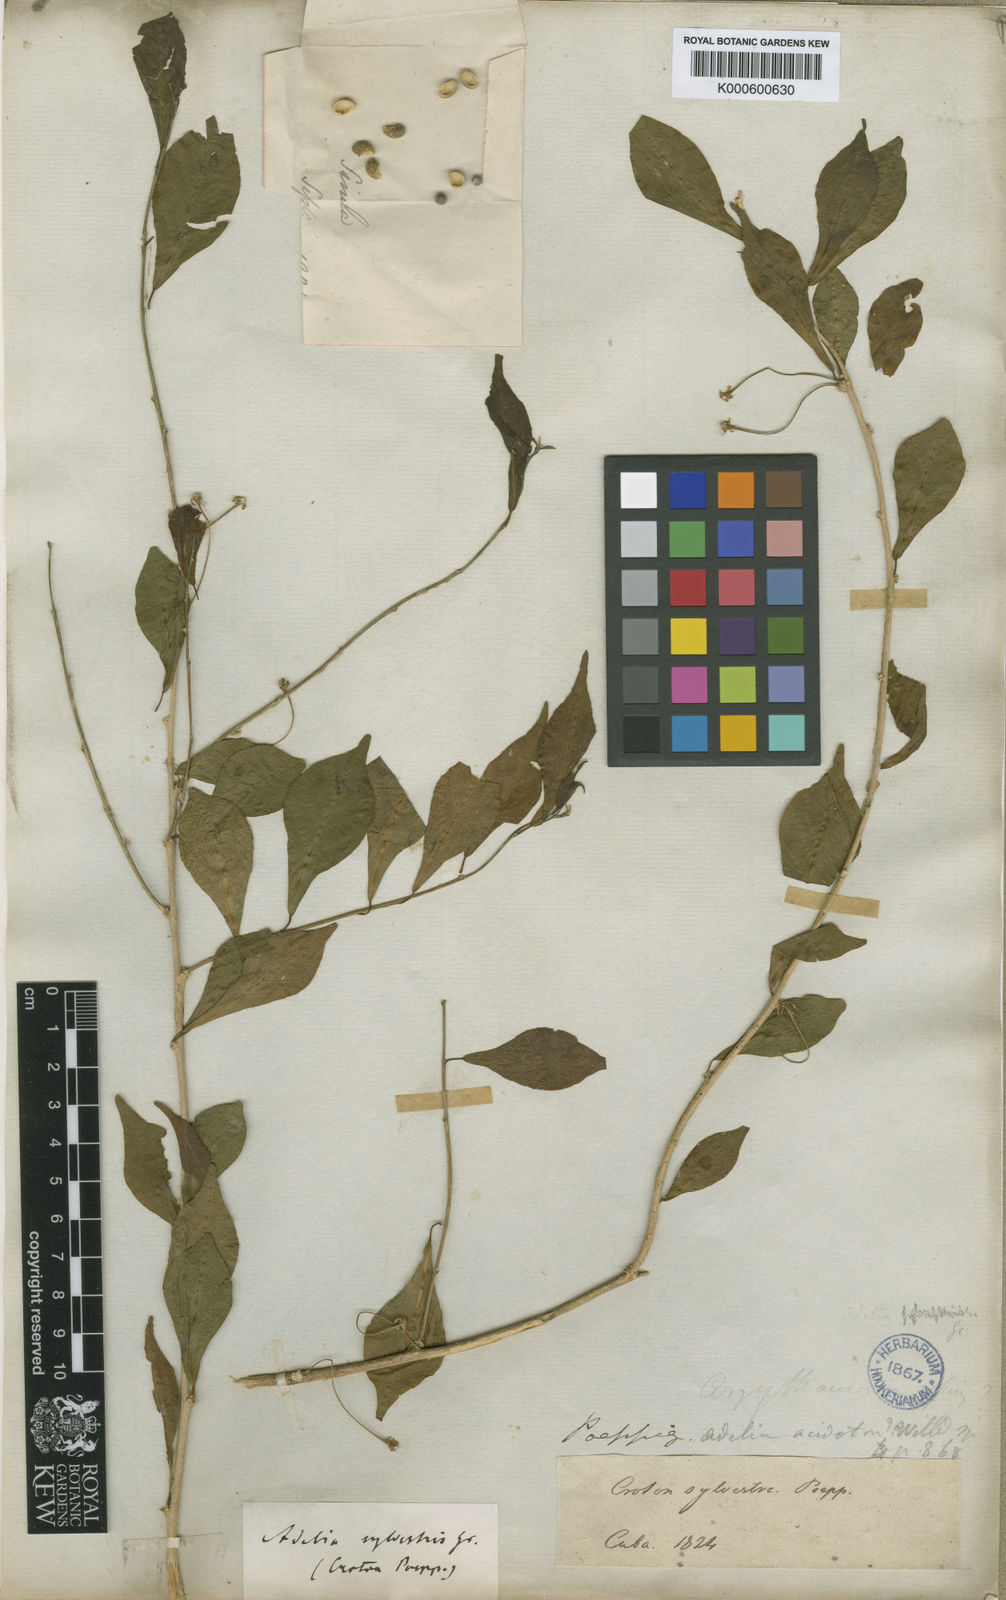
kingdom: Plantae
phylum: Tracheophyta
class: Magnoliopsida
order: Malpighiales
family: Euphorbiaceae
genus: Adelia
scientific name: Adelia ricinella
